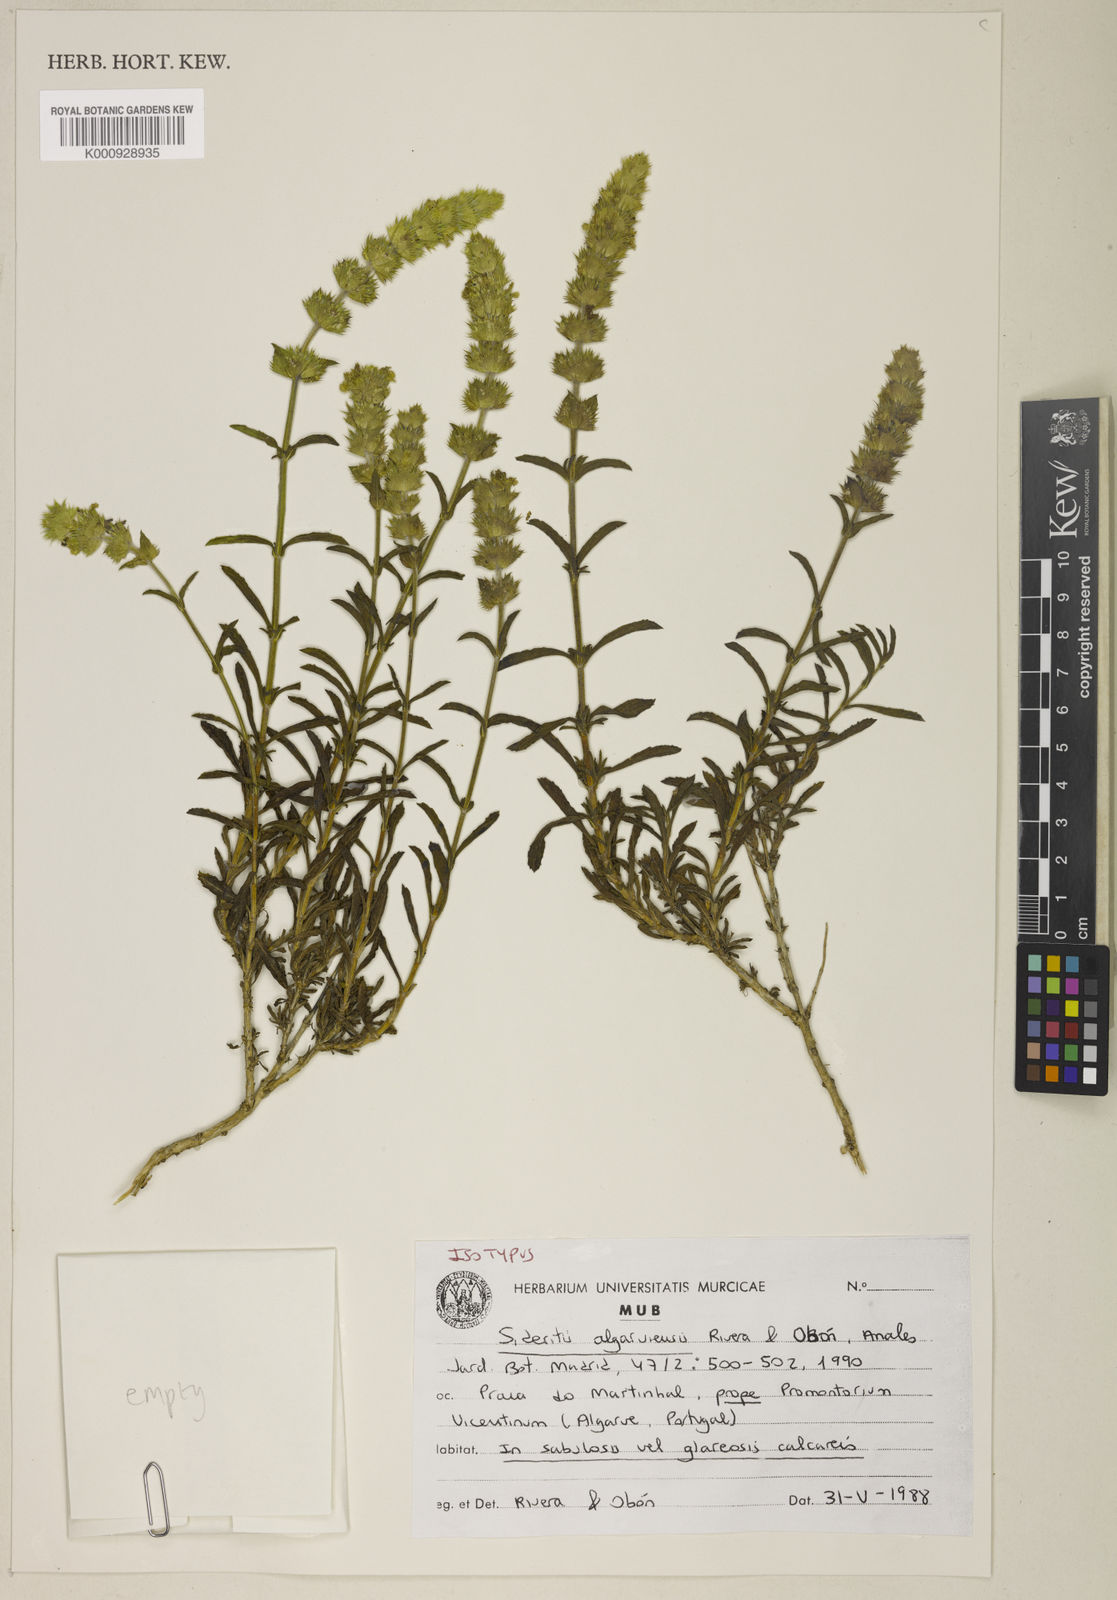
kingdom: Plantae
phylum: Tracheophyta
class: Magnoliopsida
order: Lamiales
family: Lamiaceae
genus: Sideritis
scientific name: Sideritis
